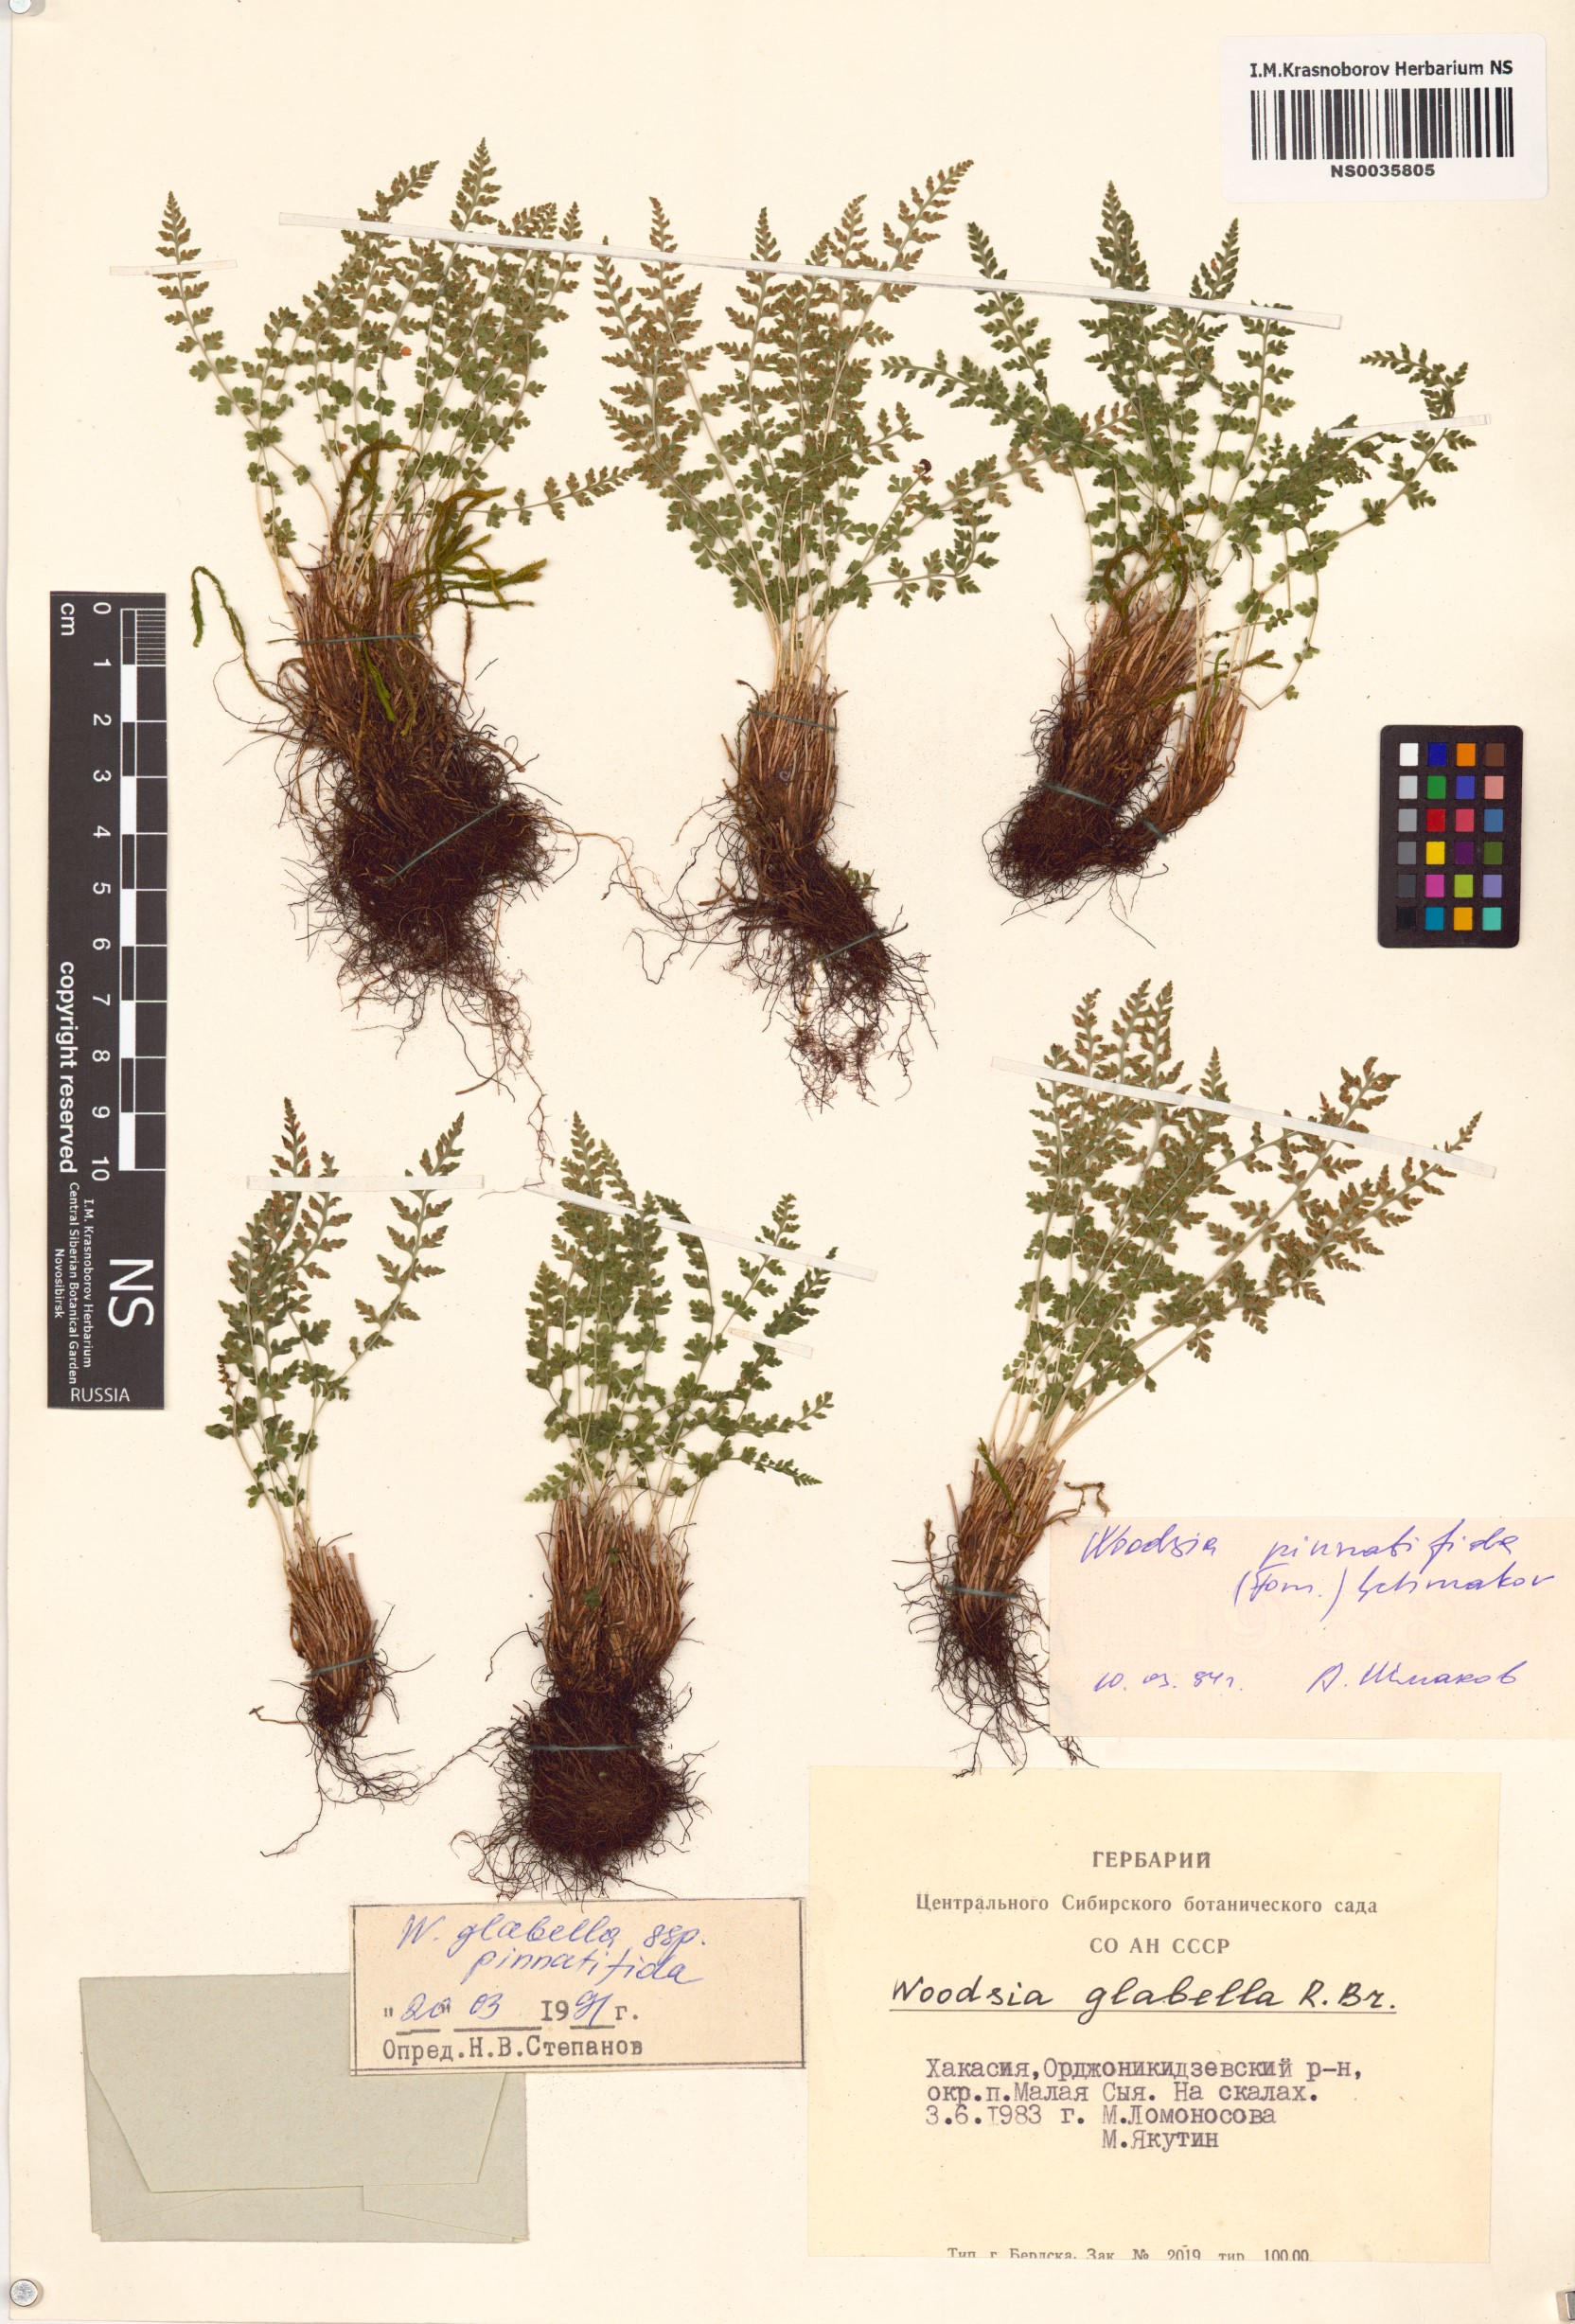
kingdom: Plantae
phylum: Tracheophyta
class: Polypodiopsida
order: Polypodiales
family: Woodsiaceae
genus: Woodsia
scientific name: Woodsia
